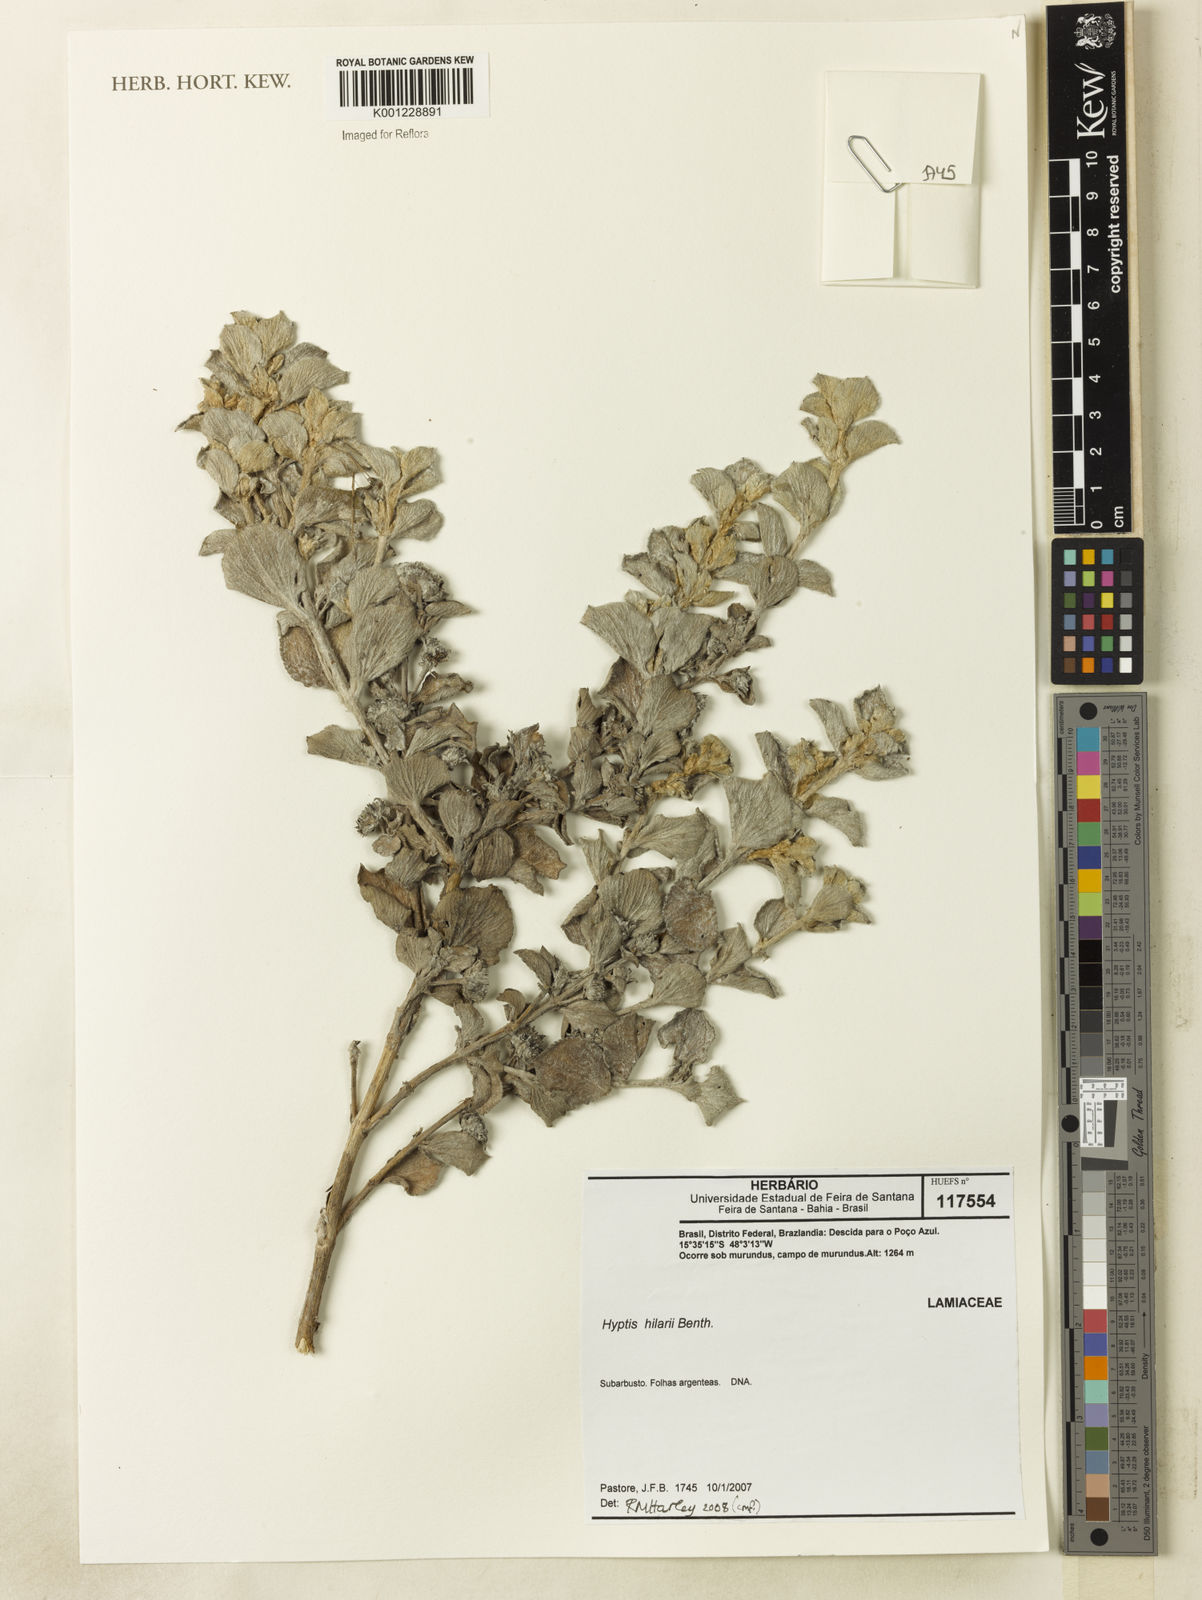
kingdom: Plantae
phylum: Tracheophyta
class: Magnoliopsida
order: Lamiales
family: Lamiaceae
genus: Hyptis
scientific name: Hyptis hilarii
